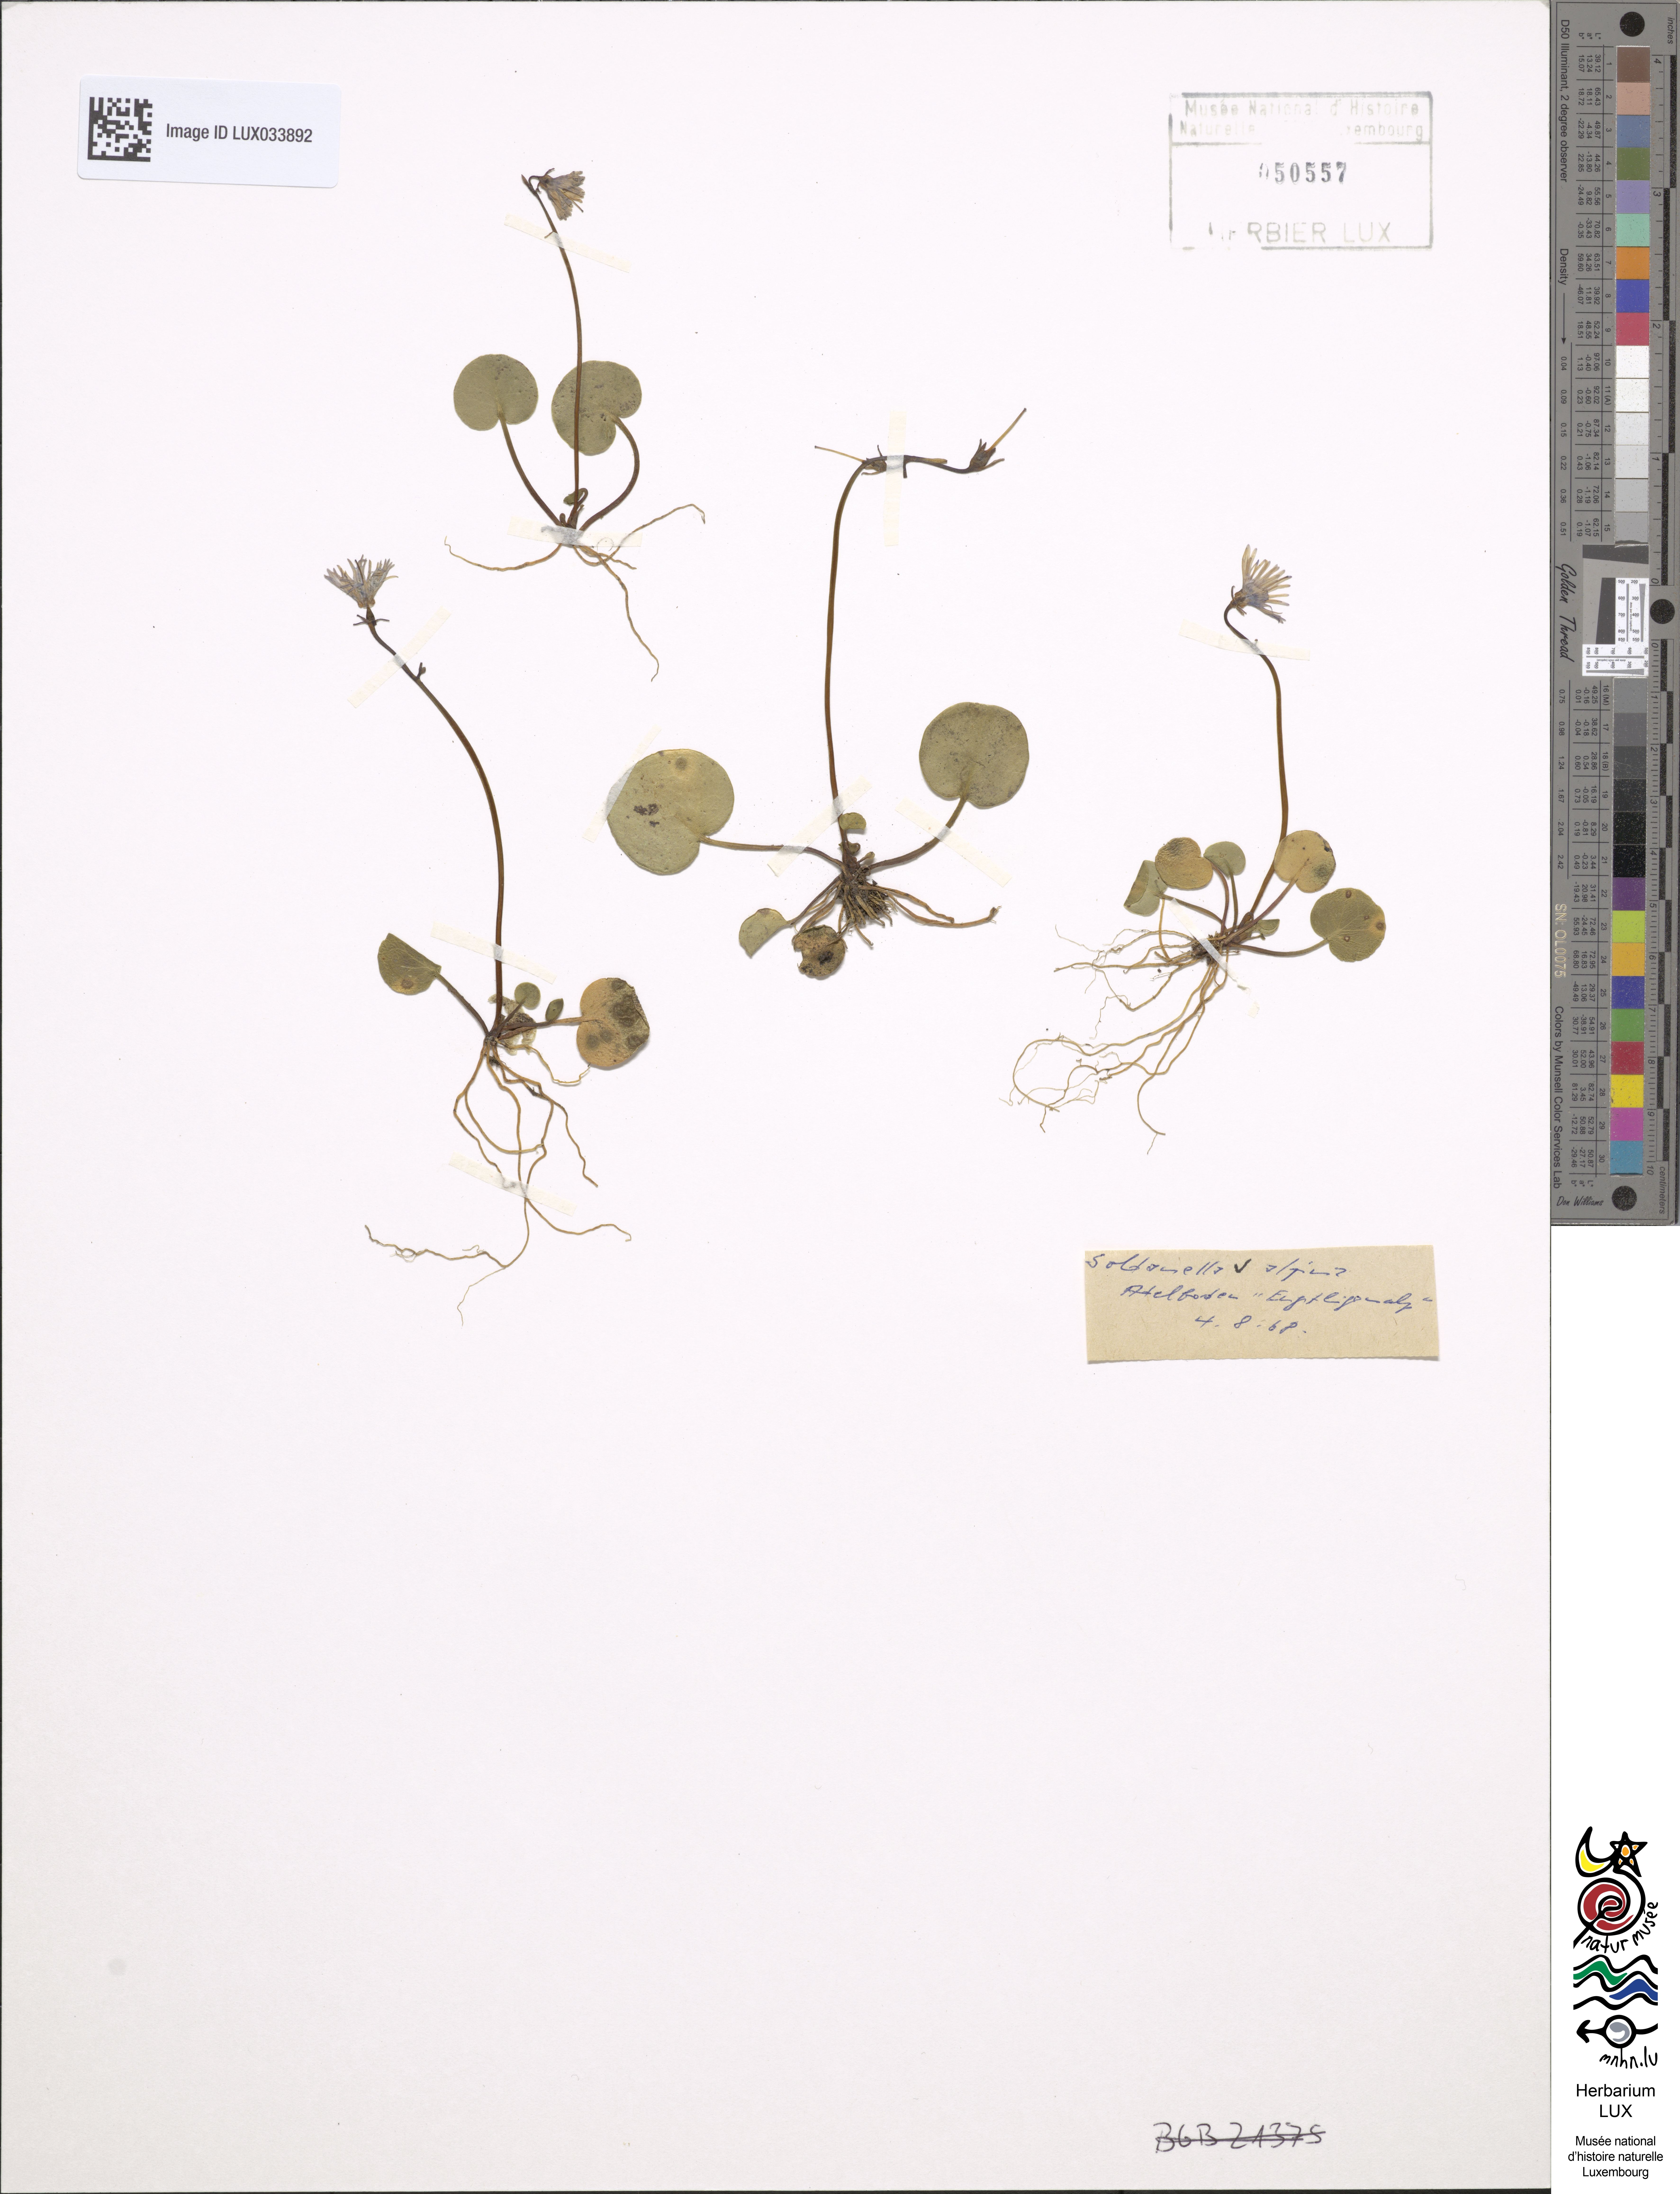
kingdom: Plantae
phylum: Tracheophyta
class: Magnoliopsida
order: Ericales
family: Primulaceae
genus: Soldanella
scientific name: Soldanella alpina
